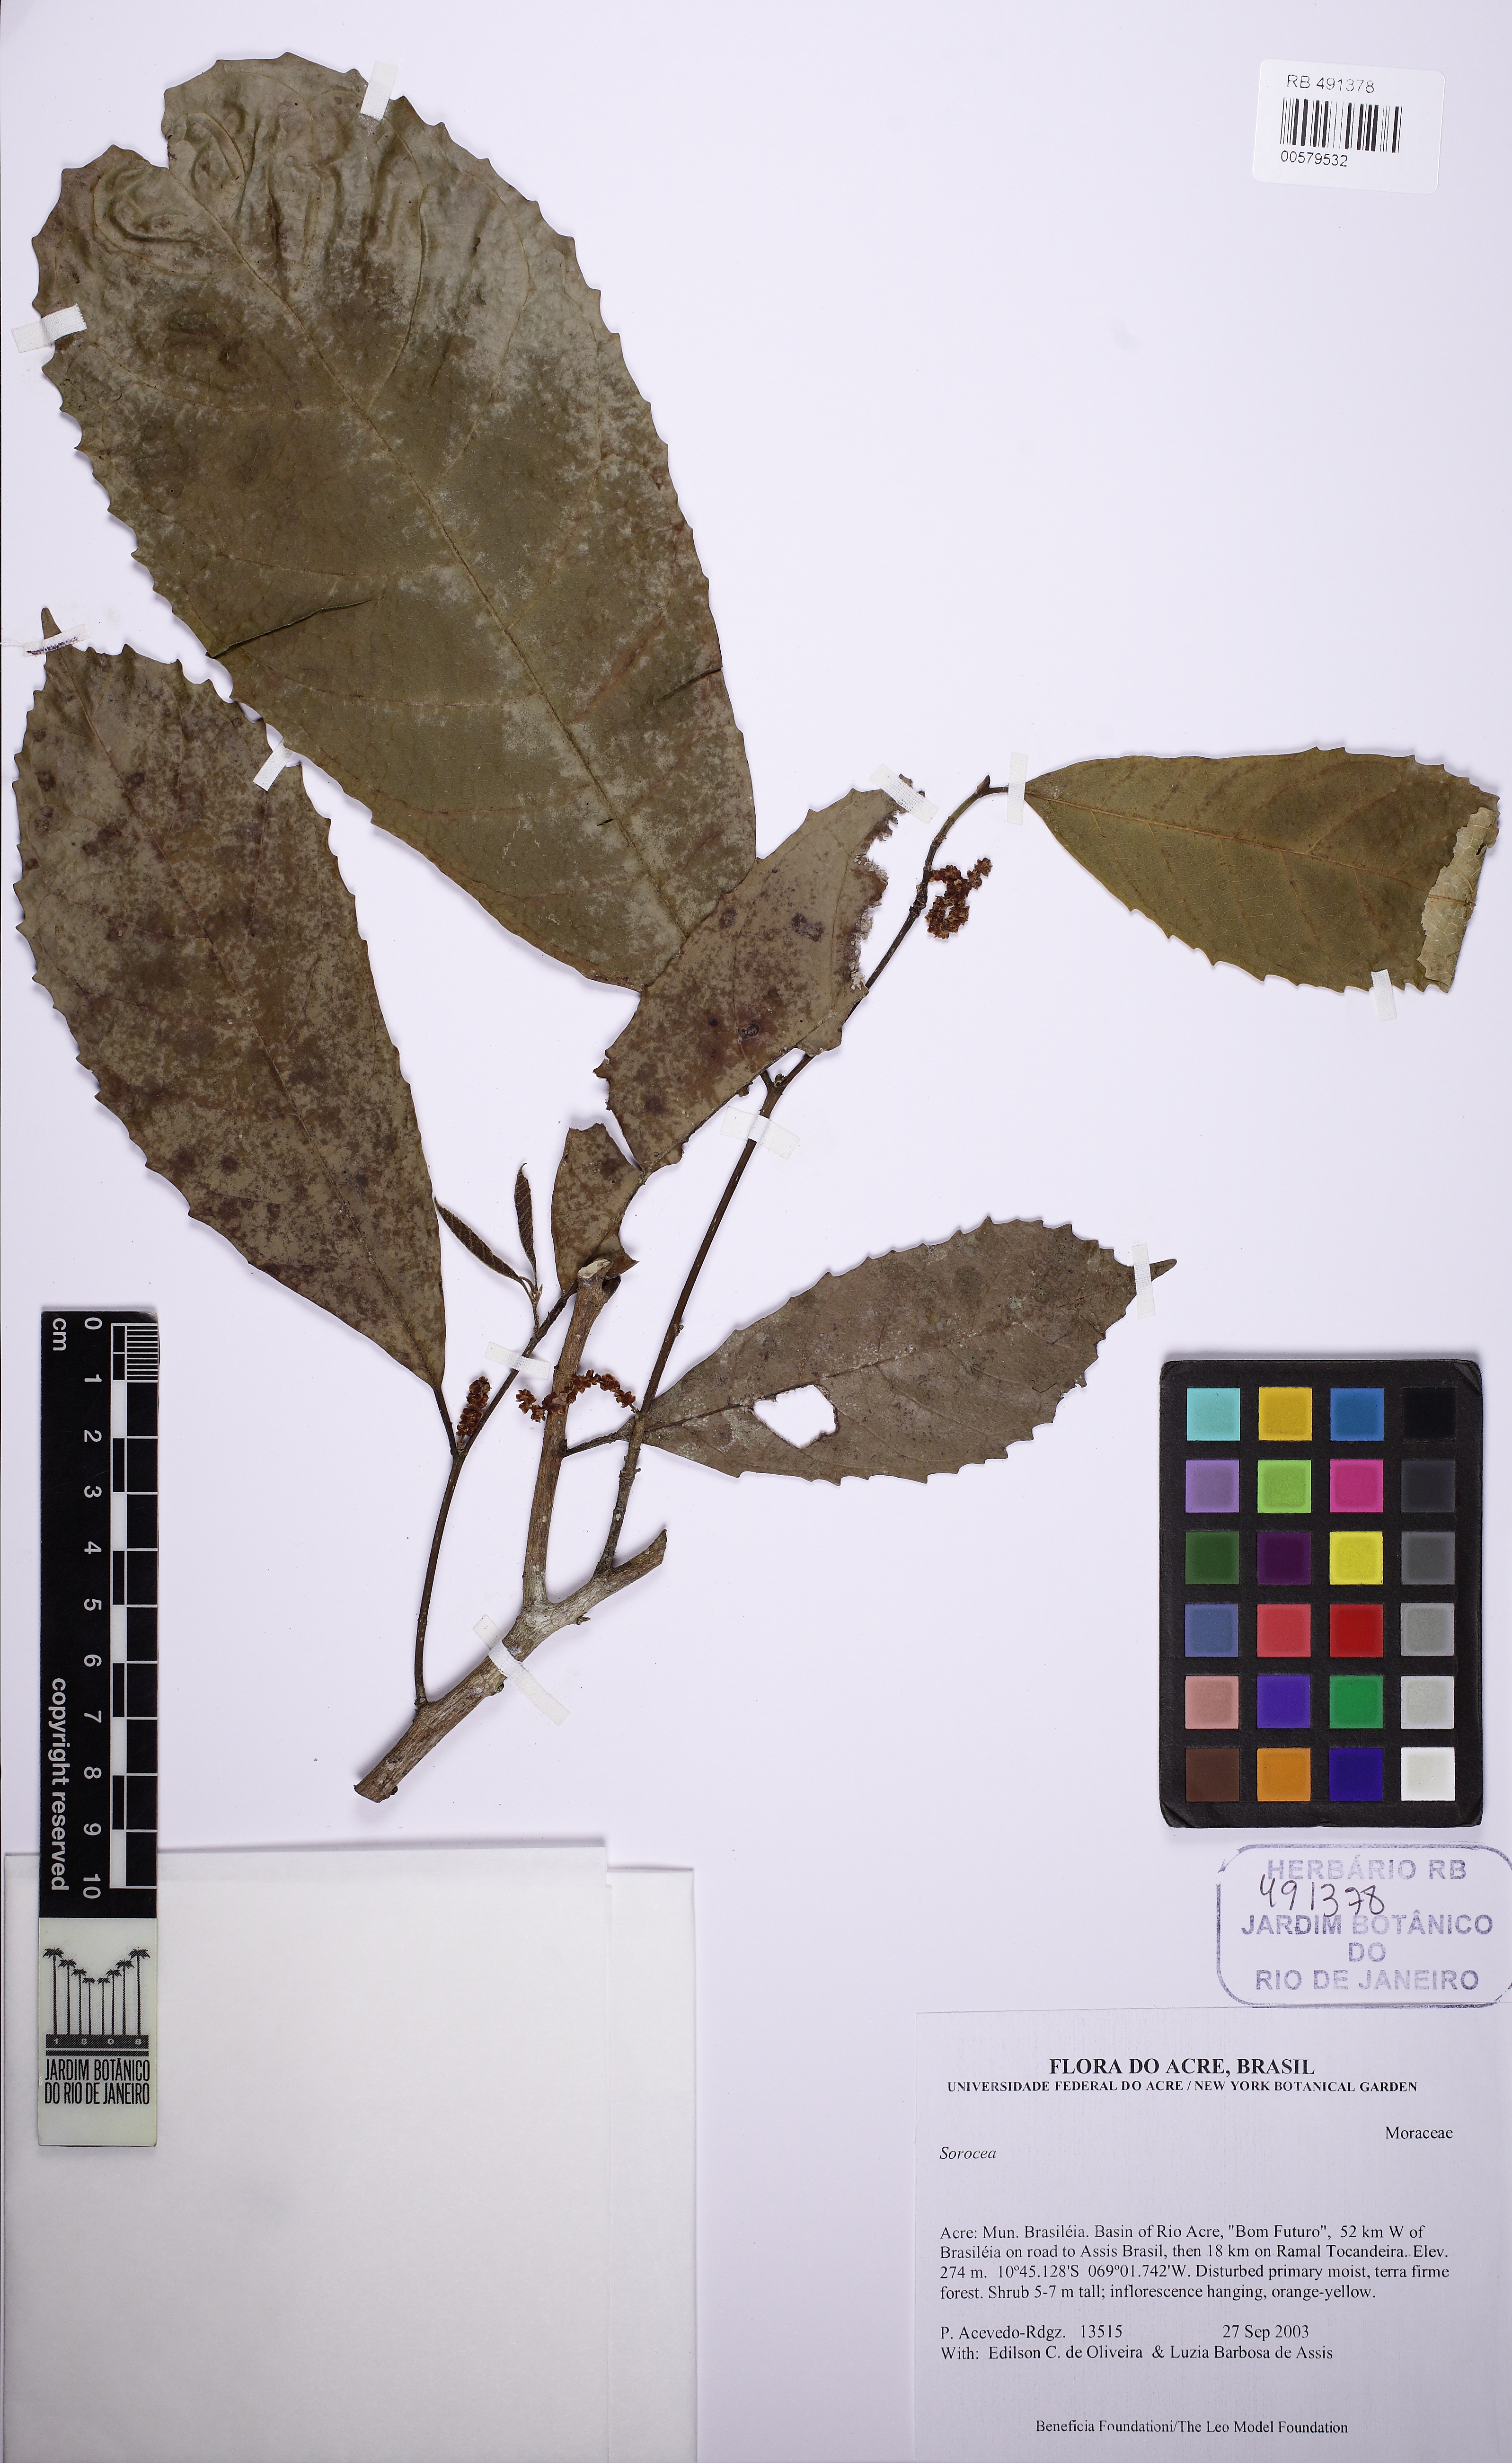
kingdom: Plantae
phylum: Tracheophyta
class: Magnoliopsida
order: Rosales
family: Moraceae
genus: Sorocea
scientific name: Sorocea
